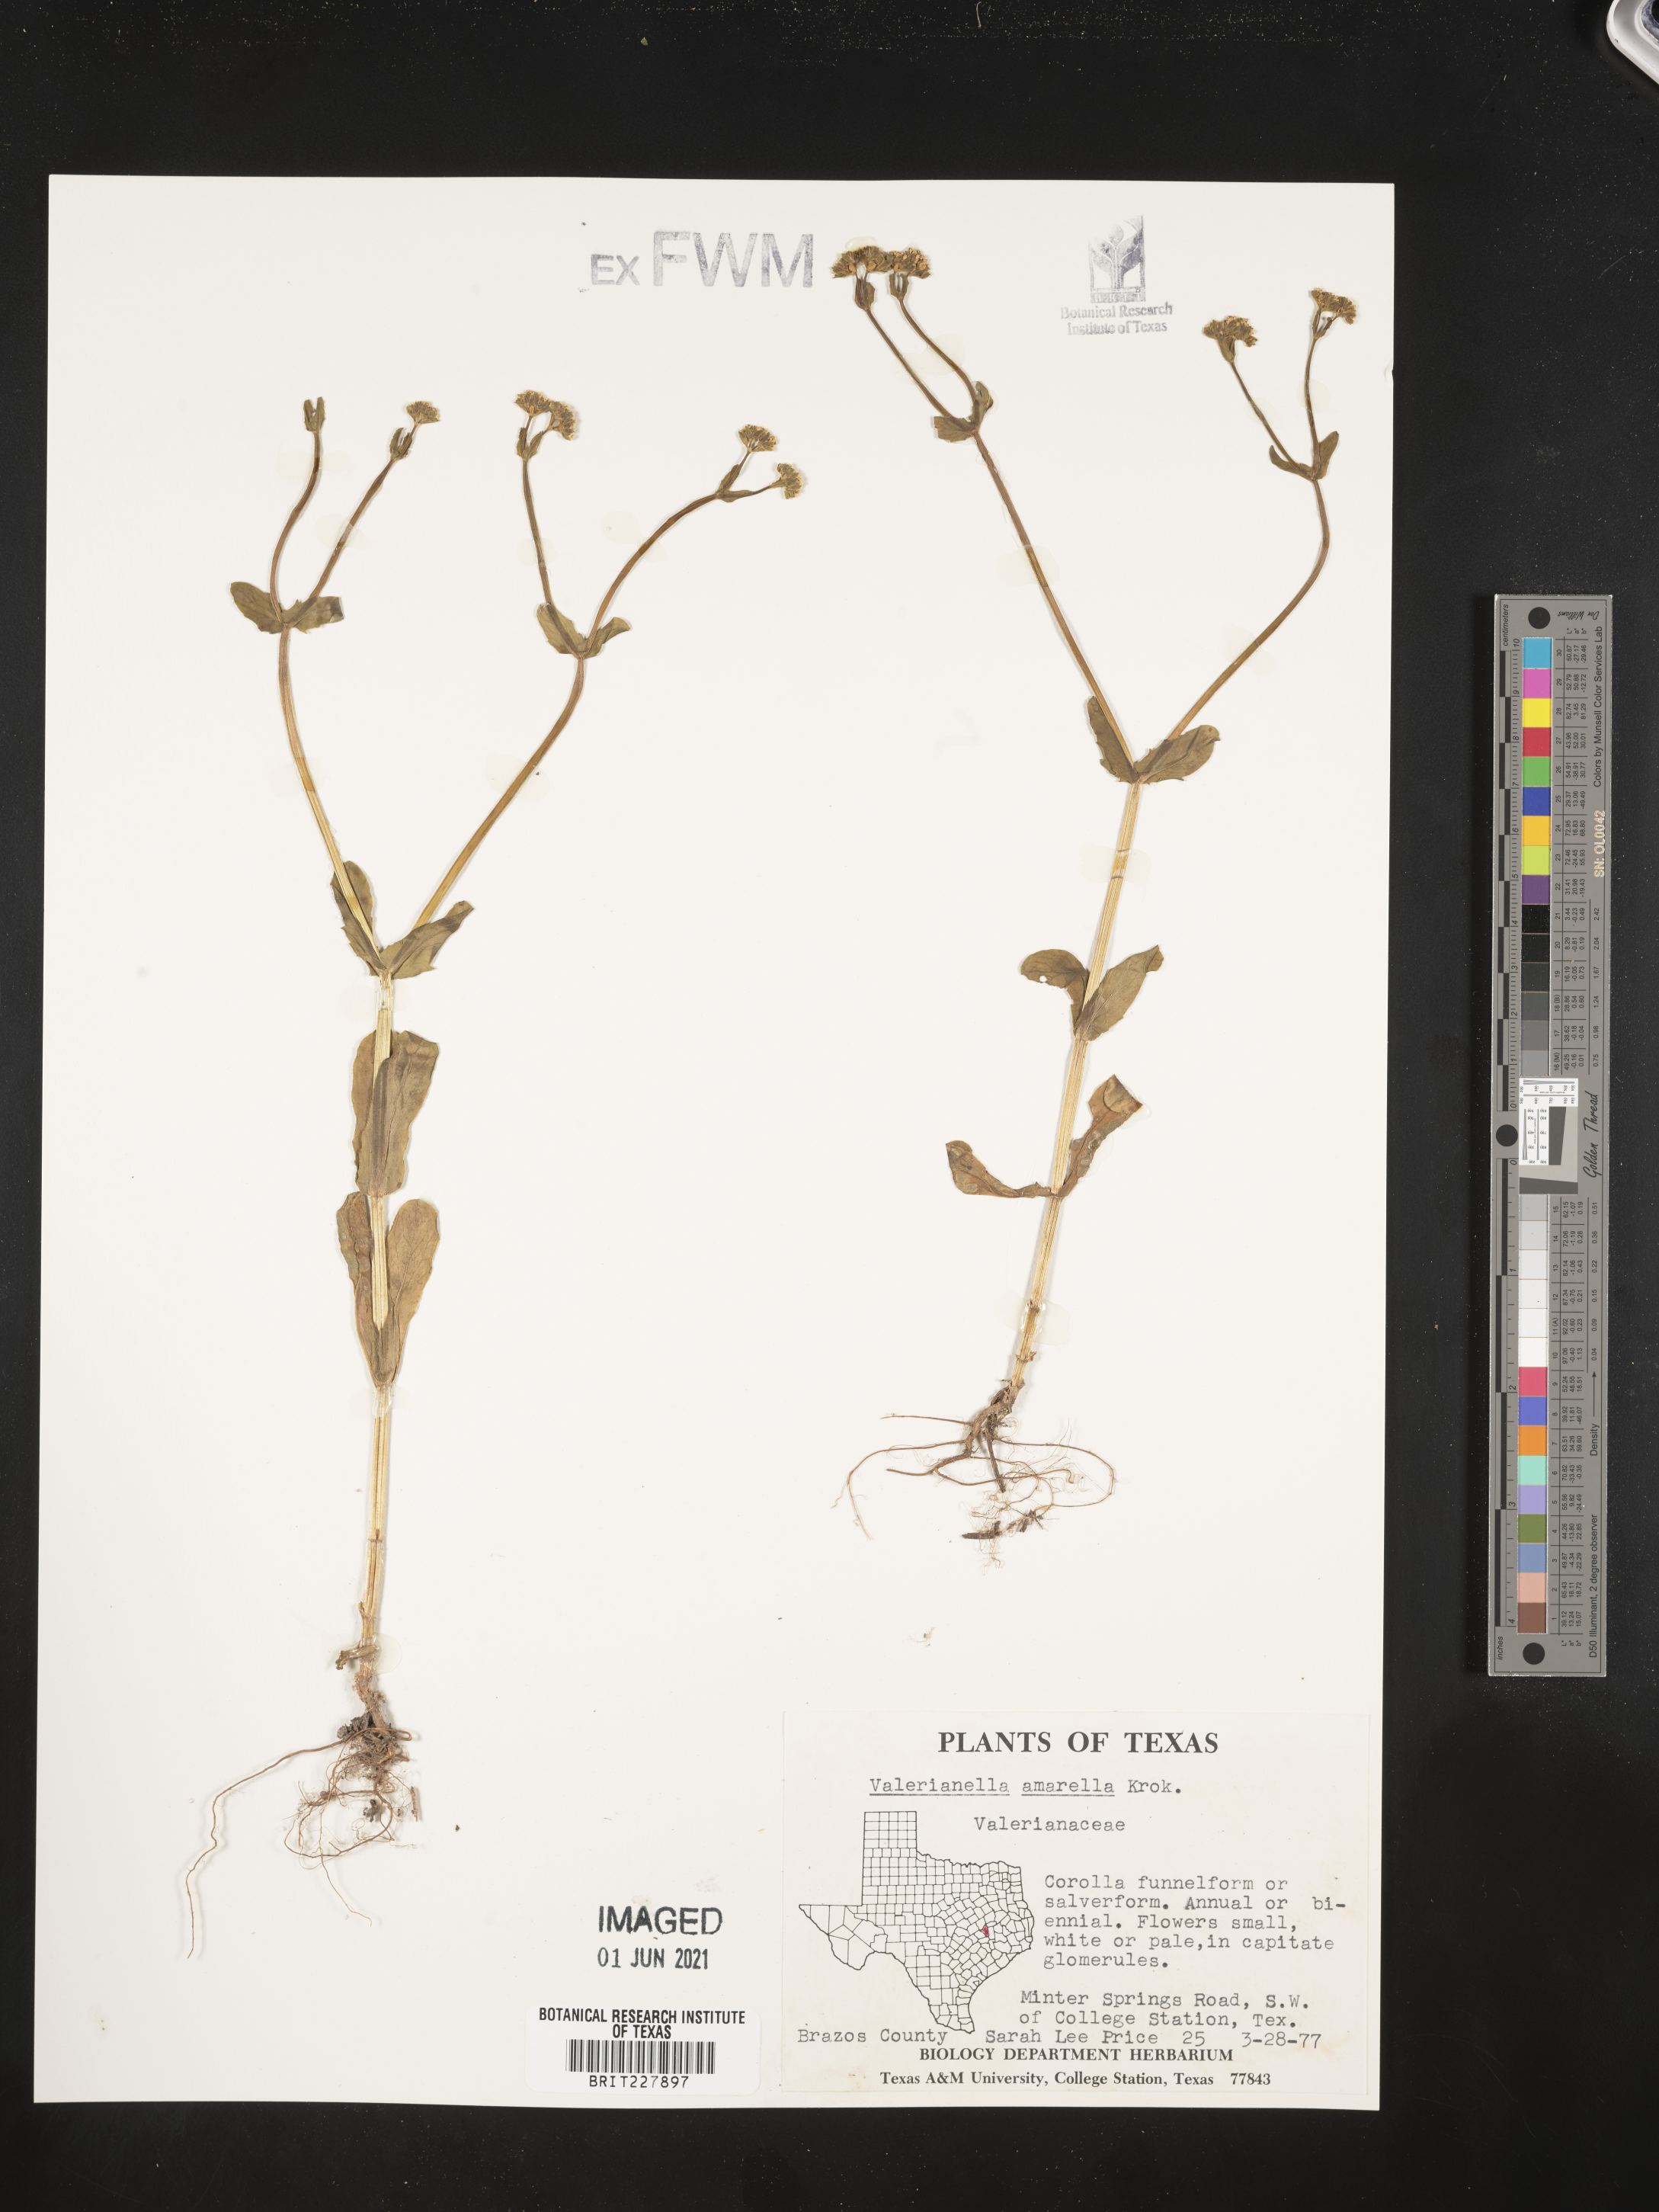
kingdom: Plantae
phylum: Tracheophyta
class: Magnoliopsida
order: Dipsacales
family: Caprifoliaceae
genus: Valerianella
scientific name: Valerianella amarella
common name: Hariy cornsalad
